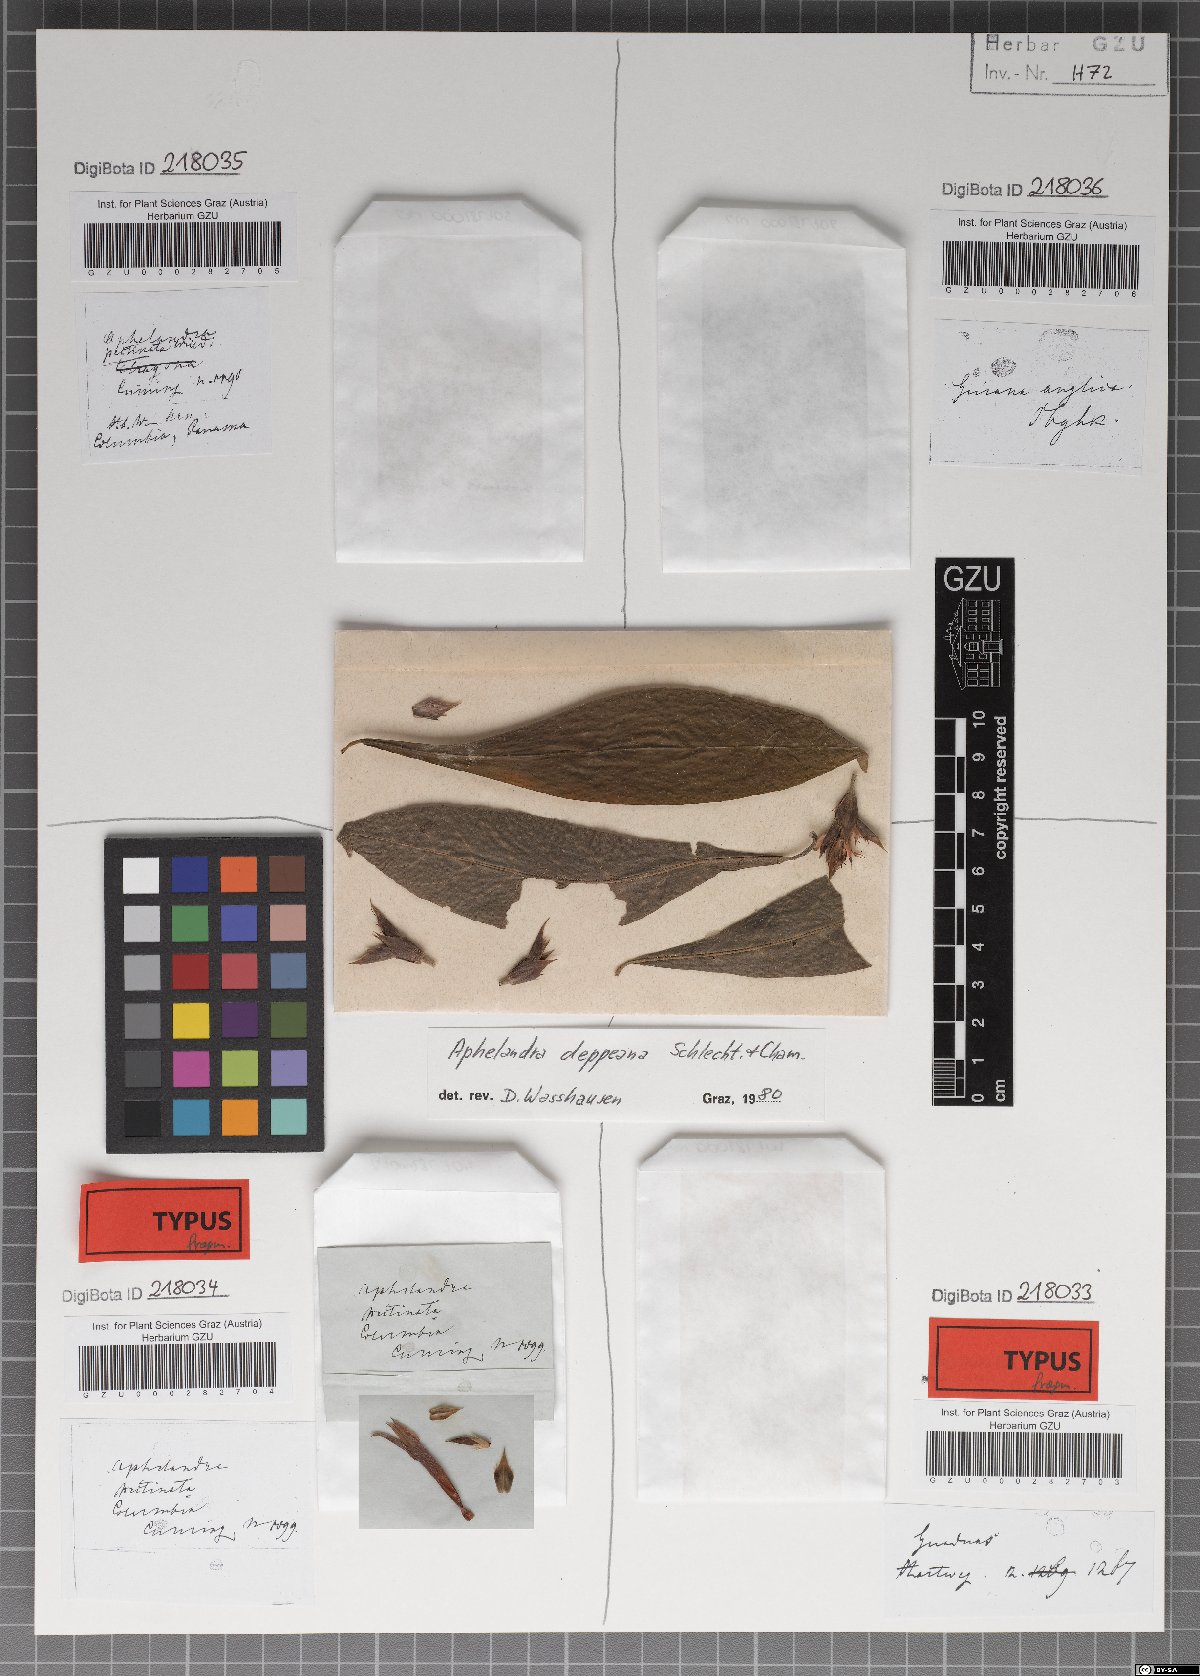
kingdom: Plantae
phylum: Tracheophyta
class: Magnoliopsida
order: Lamiales
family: Acanthaceae
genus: Aphelandra
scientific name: Aphelandra scabra
